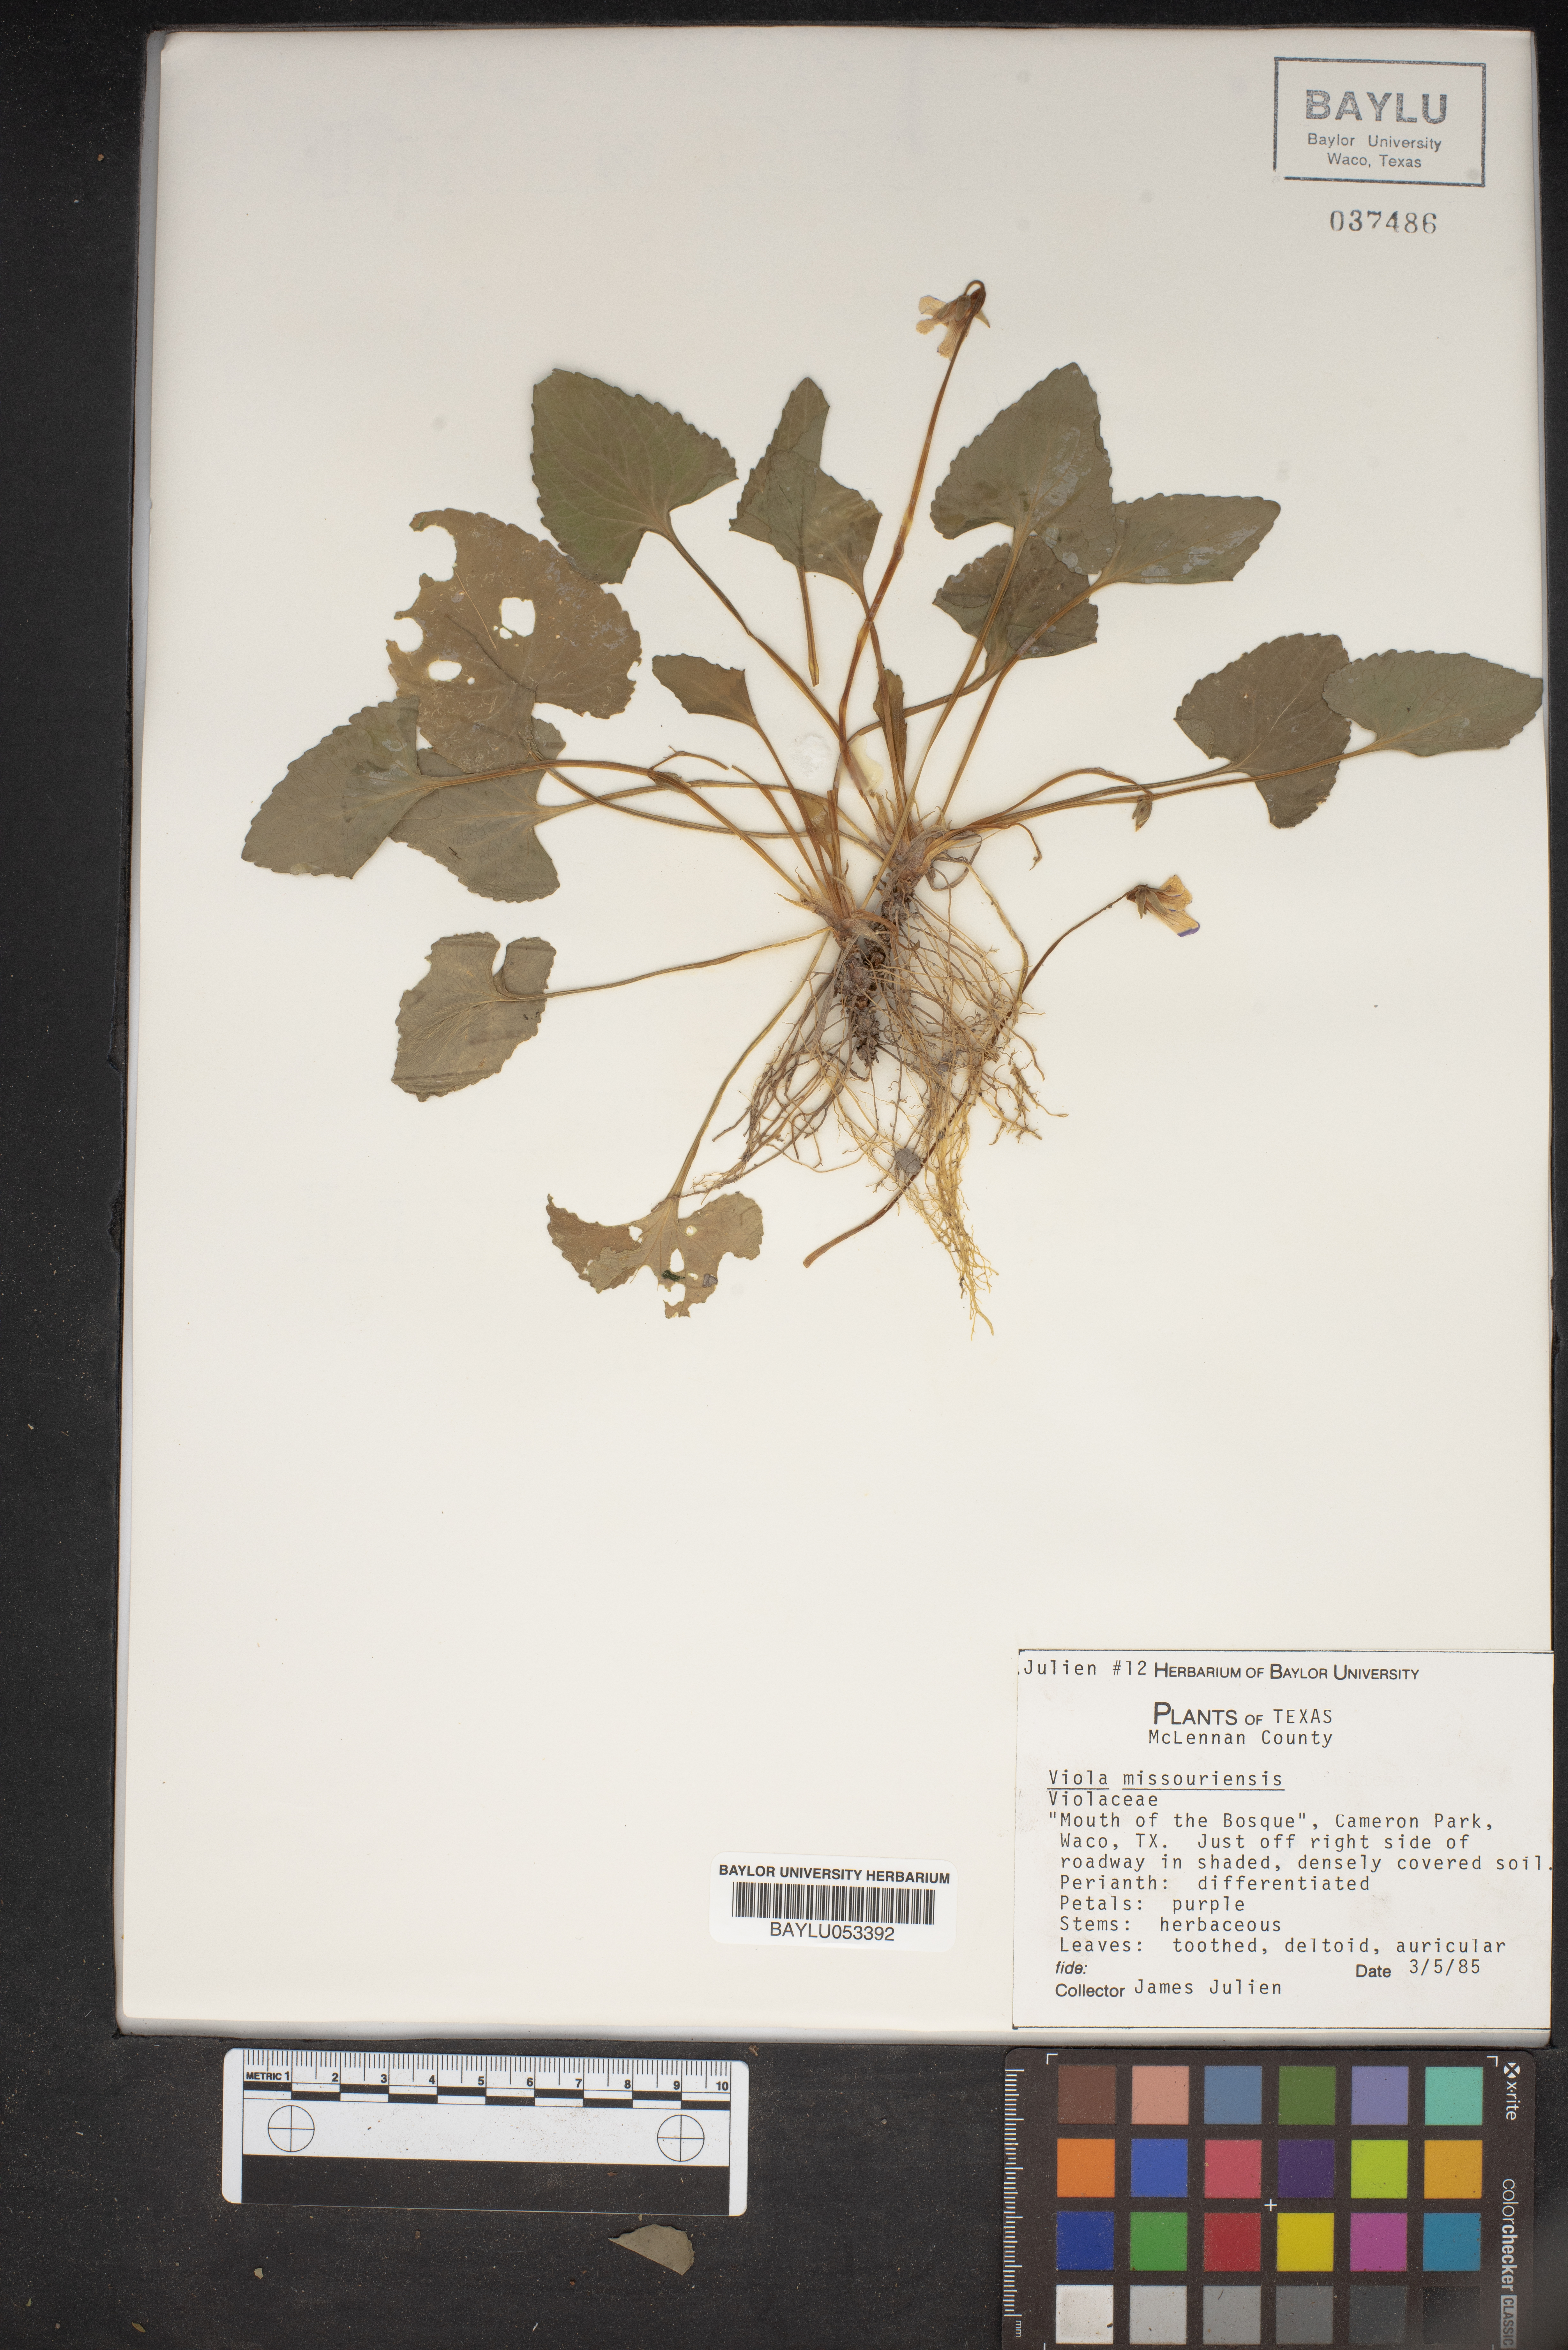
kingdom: Plantae
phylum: Tracheophyta
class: Magnoliopsida
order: Malpighiales
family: Violaceae
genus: Viola
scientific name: Viola missouriensis
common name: Missouri violet
